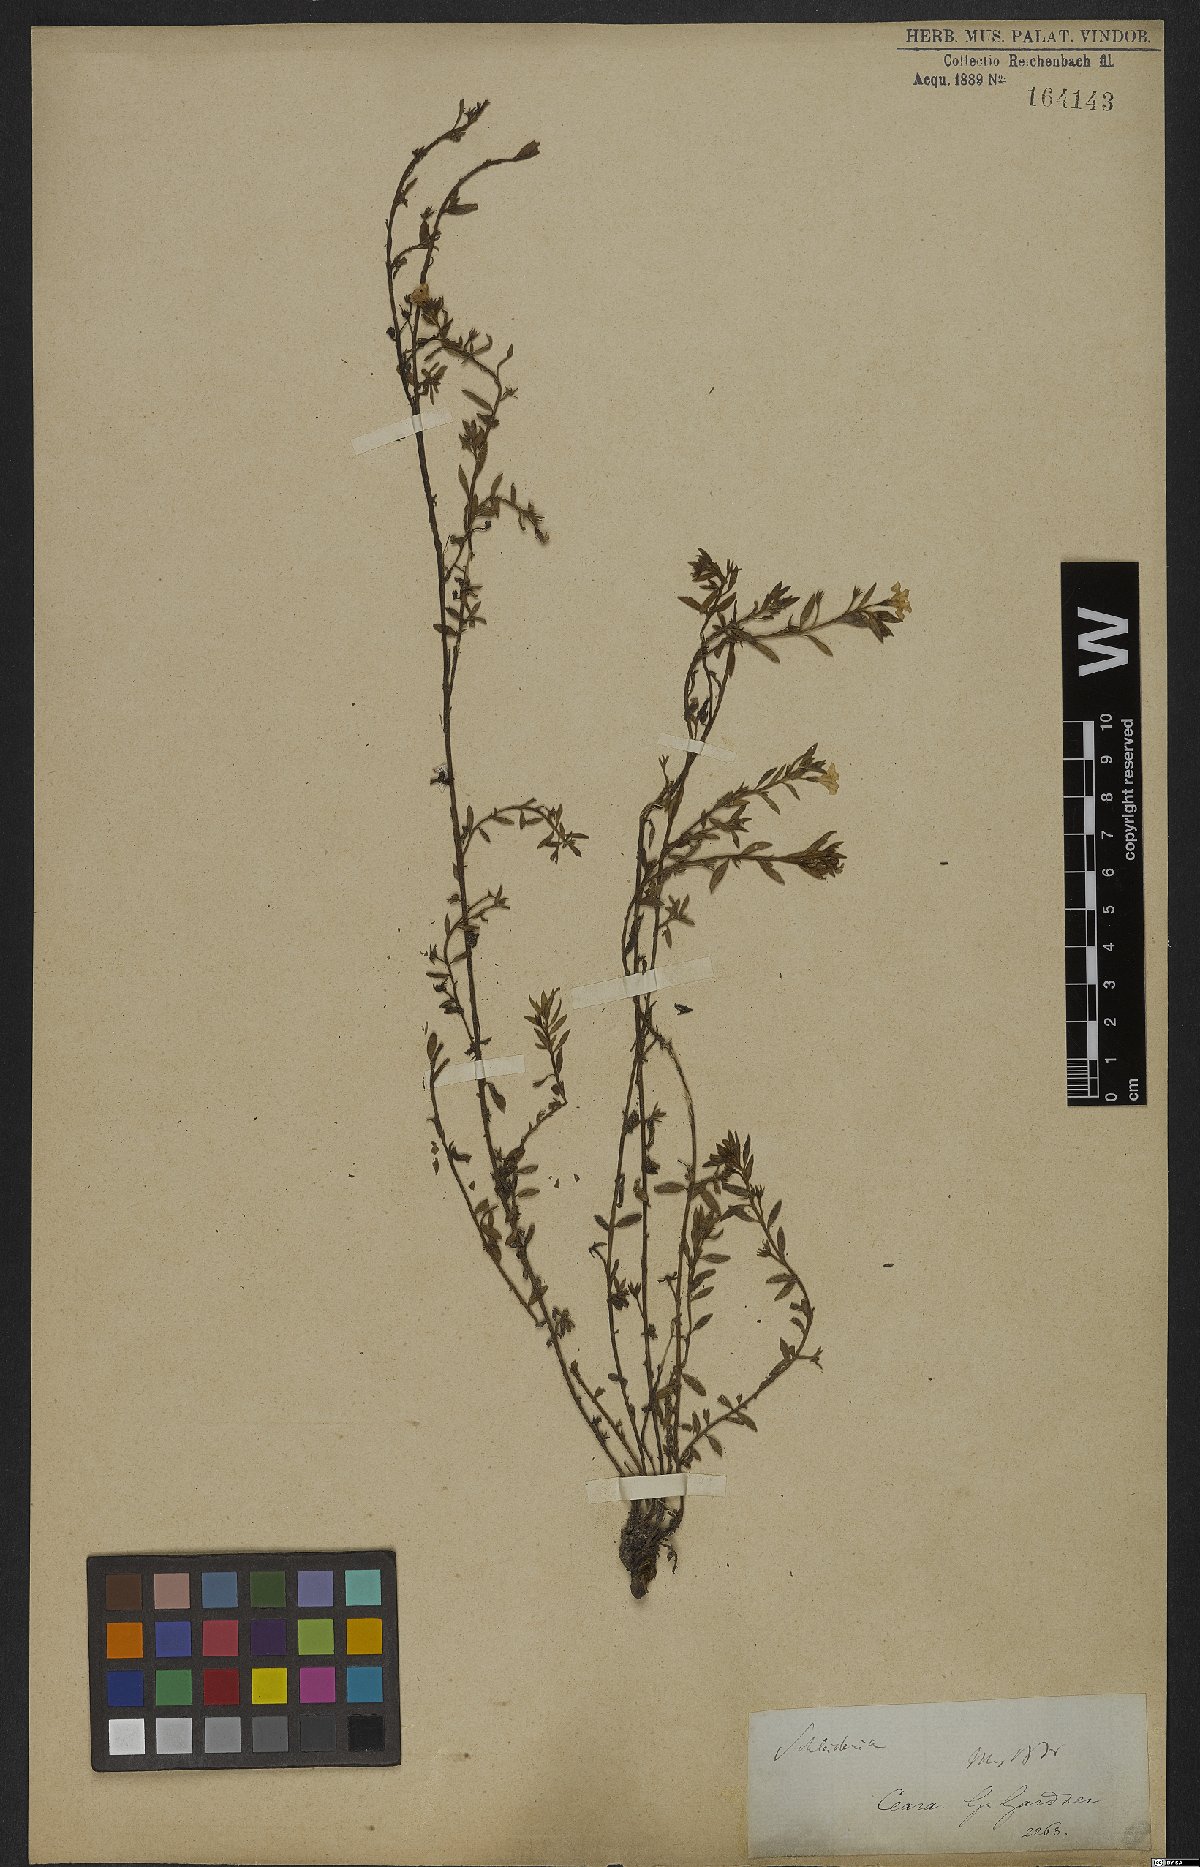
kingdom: Plantae
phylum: Tracheophyta
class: Magnoliopsida
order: Boraginales
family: Heliotropiaceae
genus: Heliotropium
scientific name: Heliotropium macrodon
